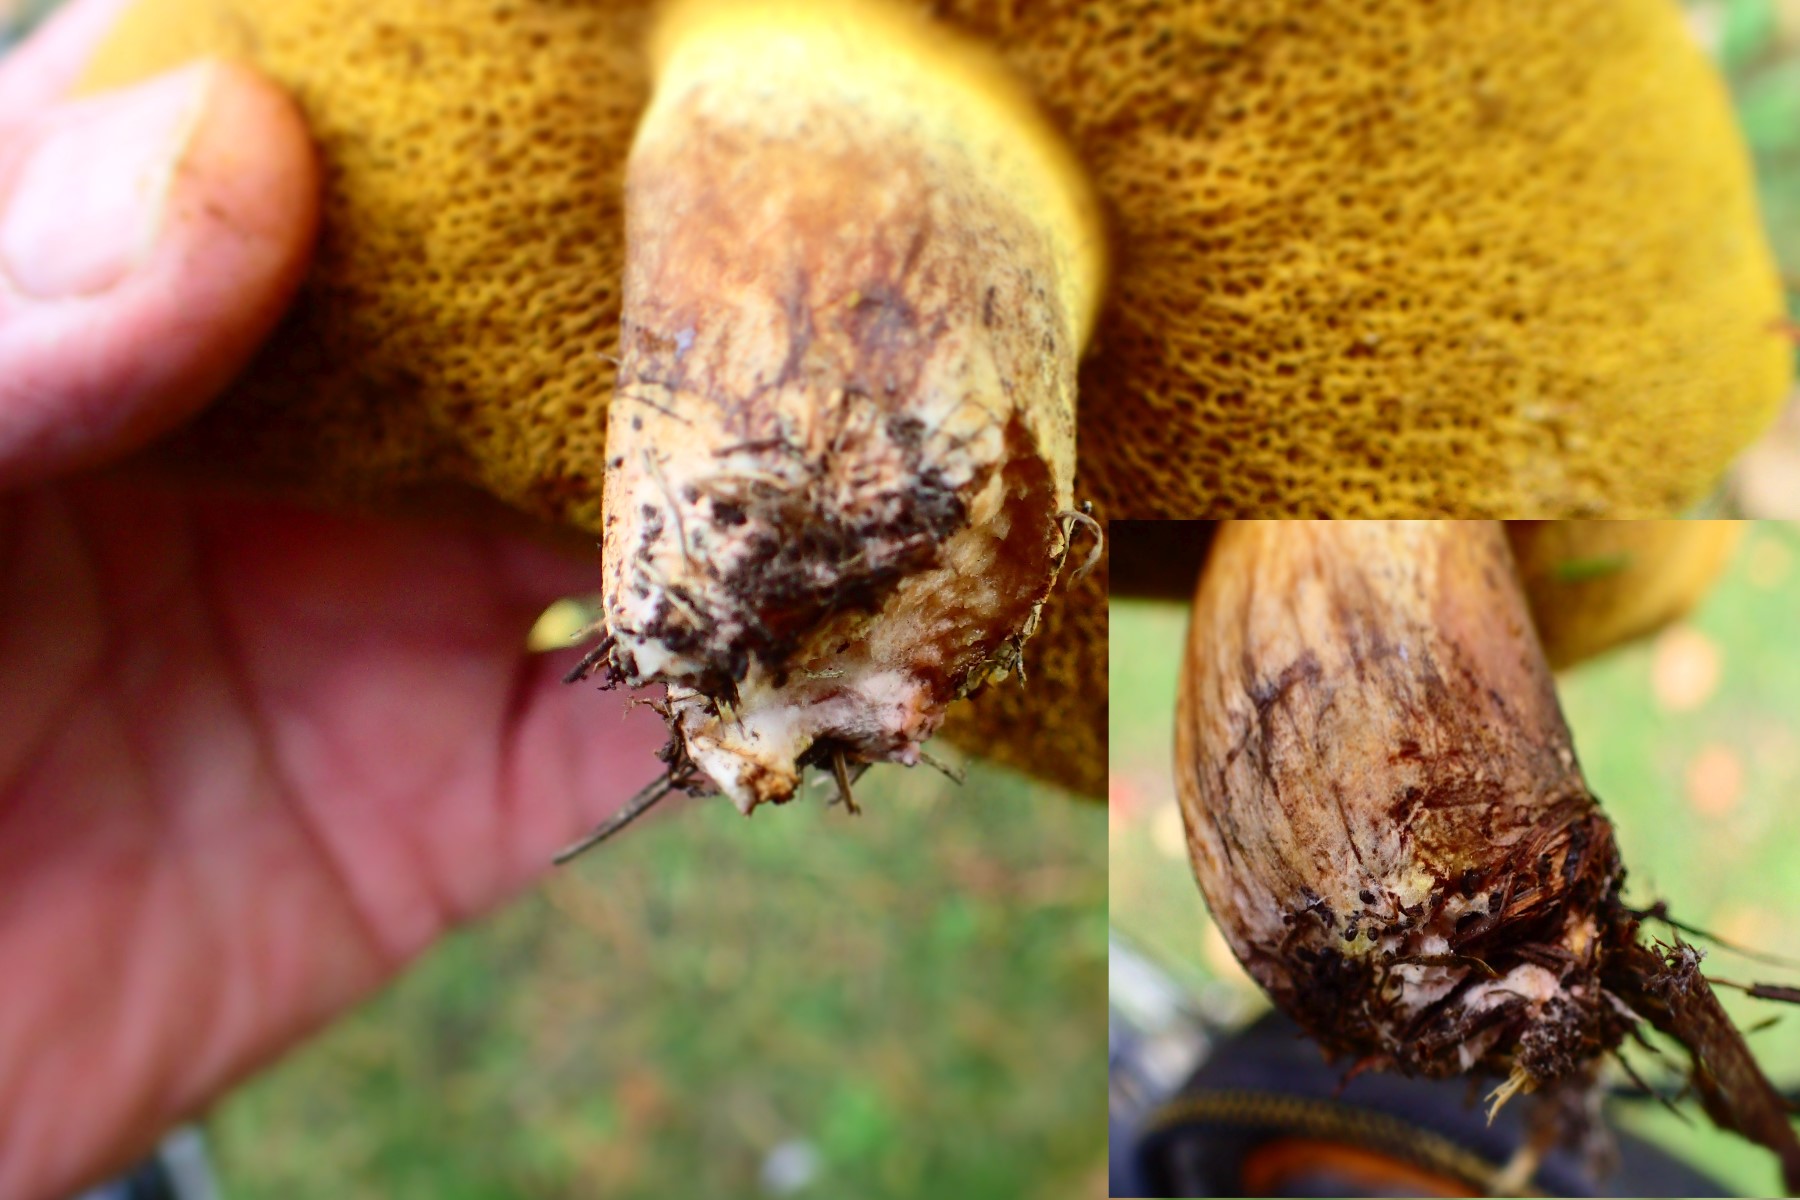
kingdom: Fungi
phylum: Basidiomycota
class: Agaricomycetes
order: Boletales
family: Suillaceae
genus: Suillus
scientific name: Suillus collinitus
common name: rosafodet slimrørhat
